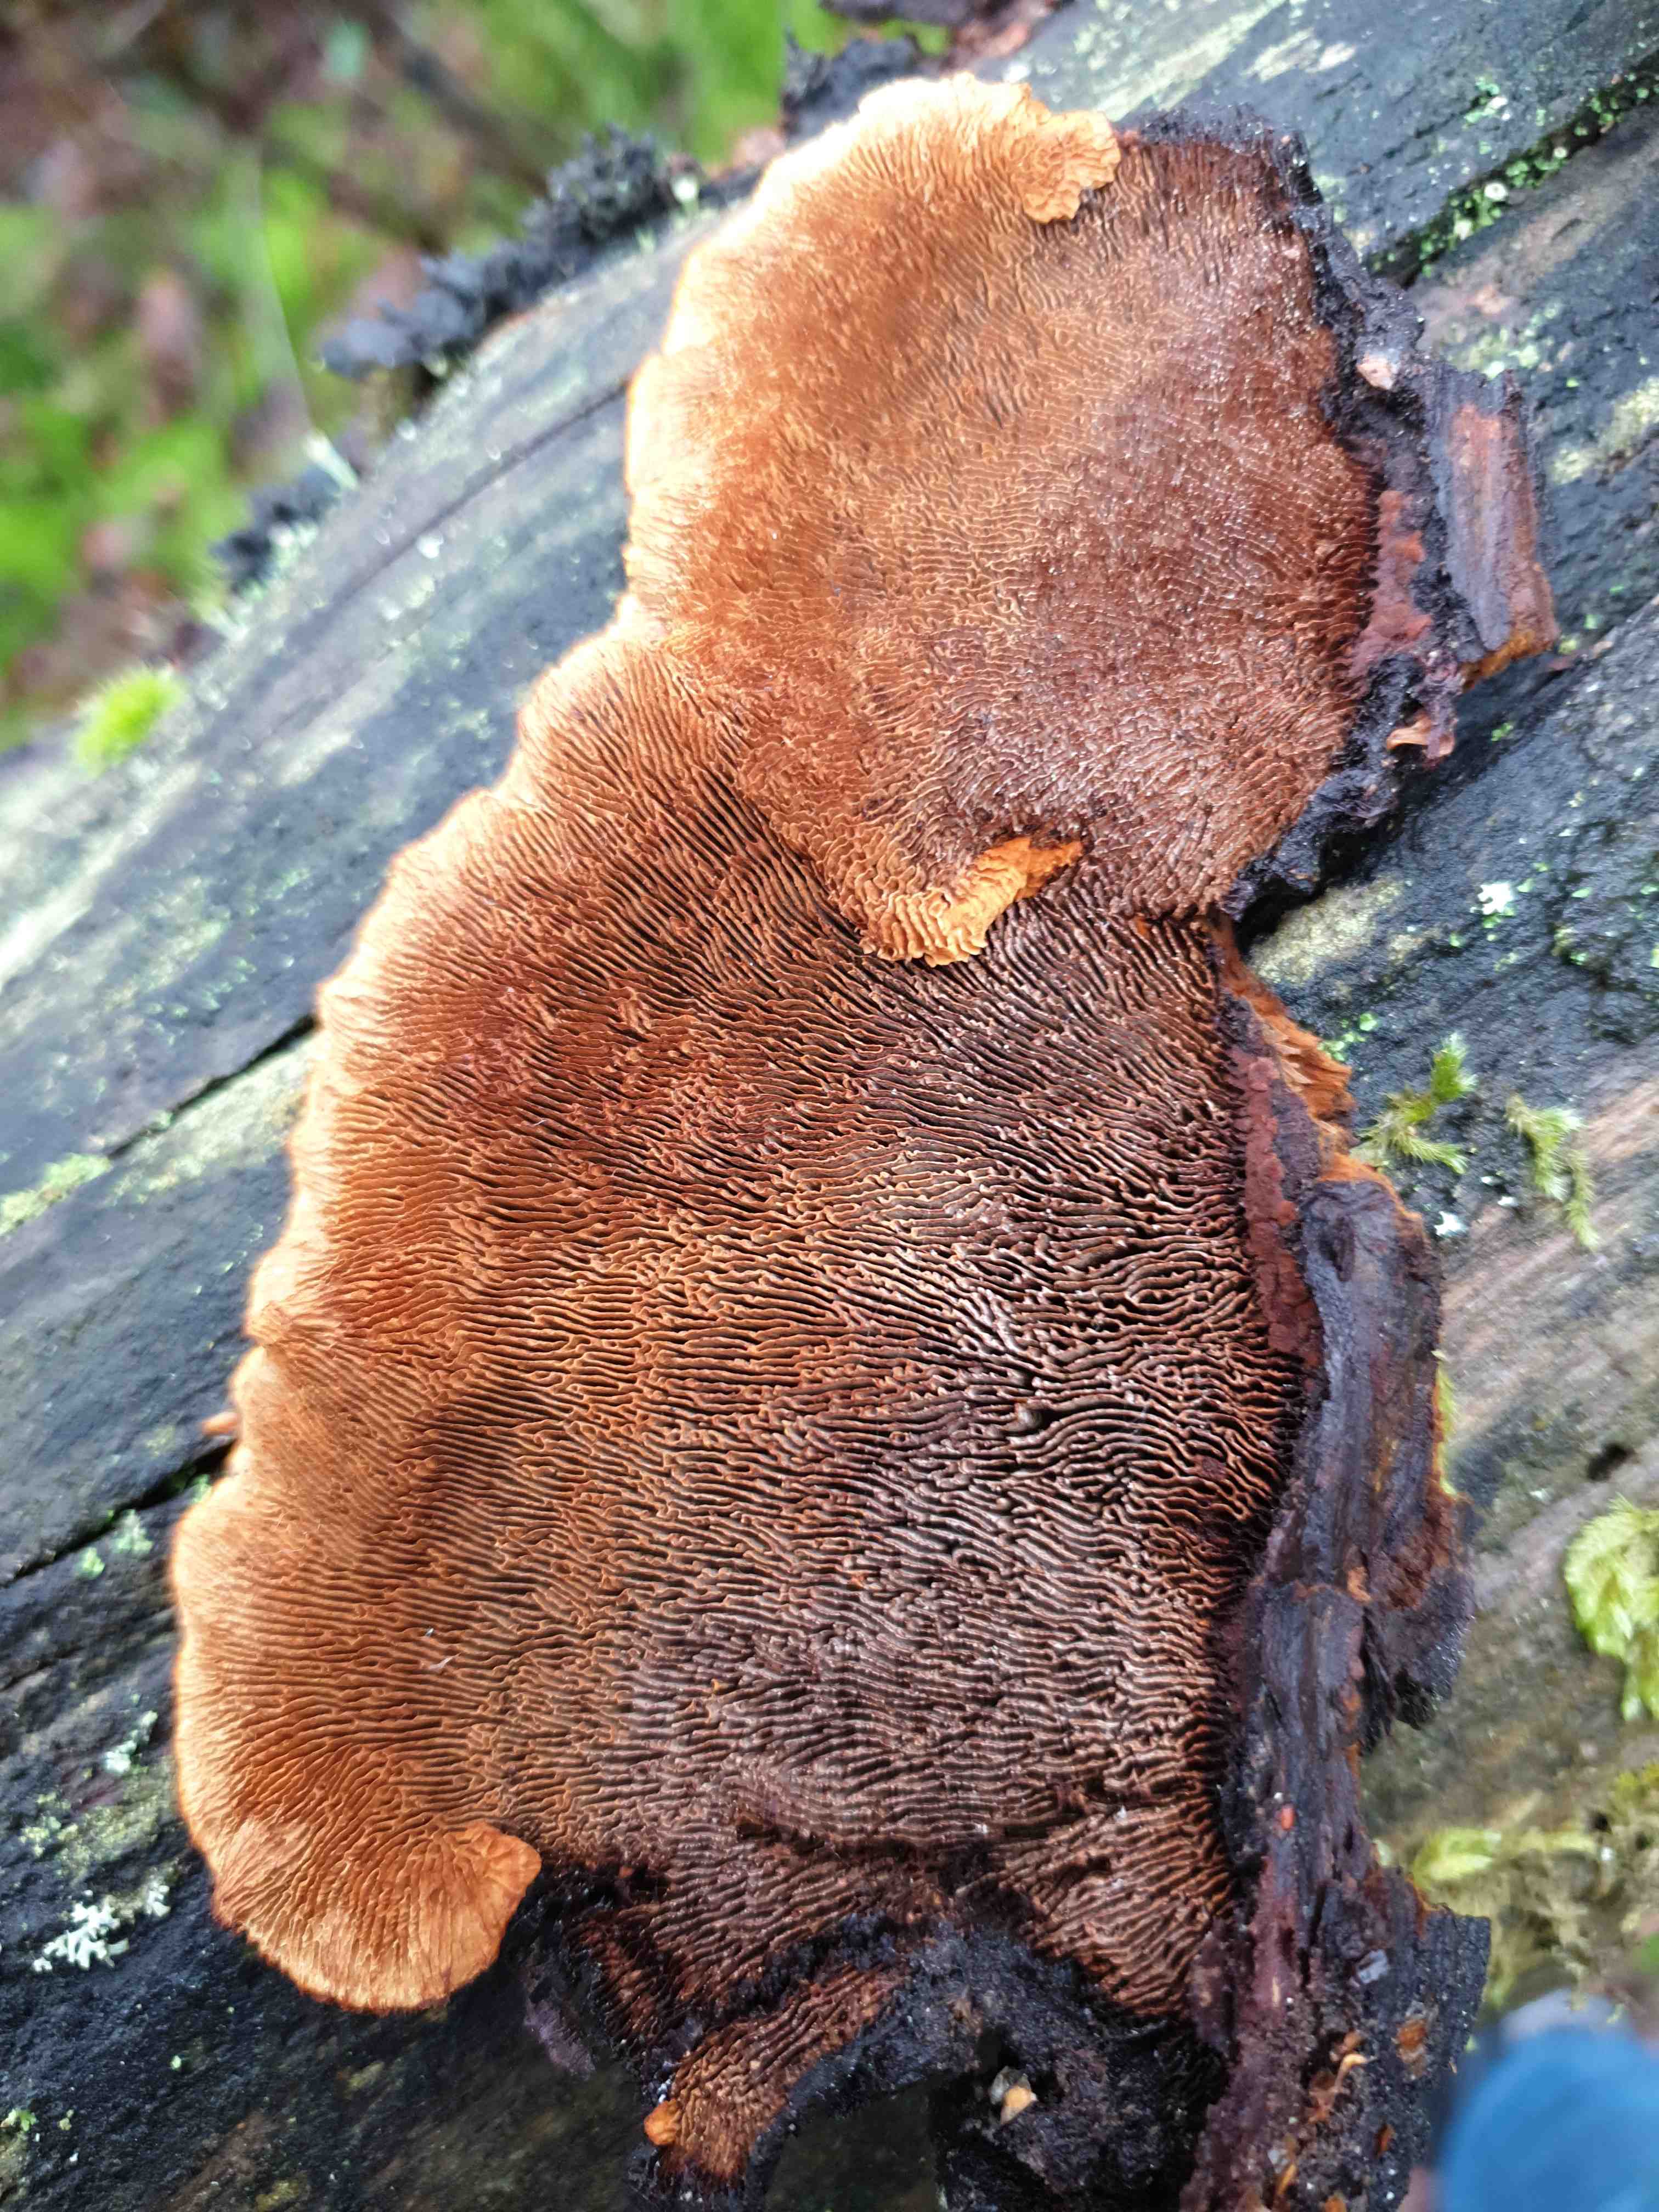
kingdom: Fungi
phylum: Basidiomycota
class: Agaricomycetes
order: Gloeophyllales
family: Gloeophyllaceae
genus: Gloeophyllum
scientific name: Gloeophyllum sepiarium
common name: fyrre-korkhat
